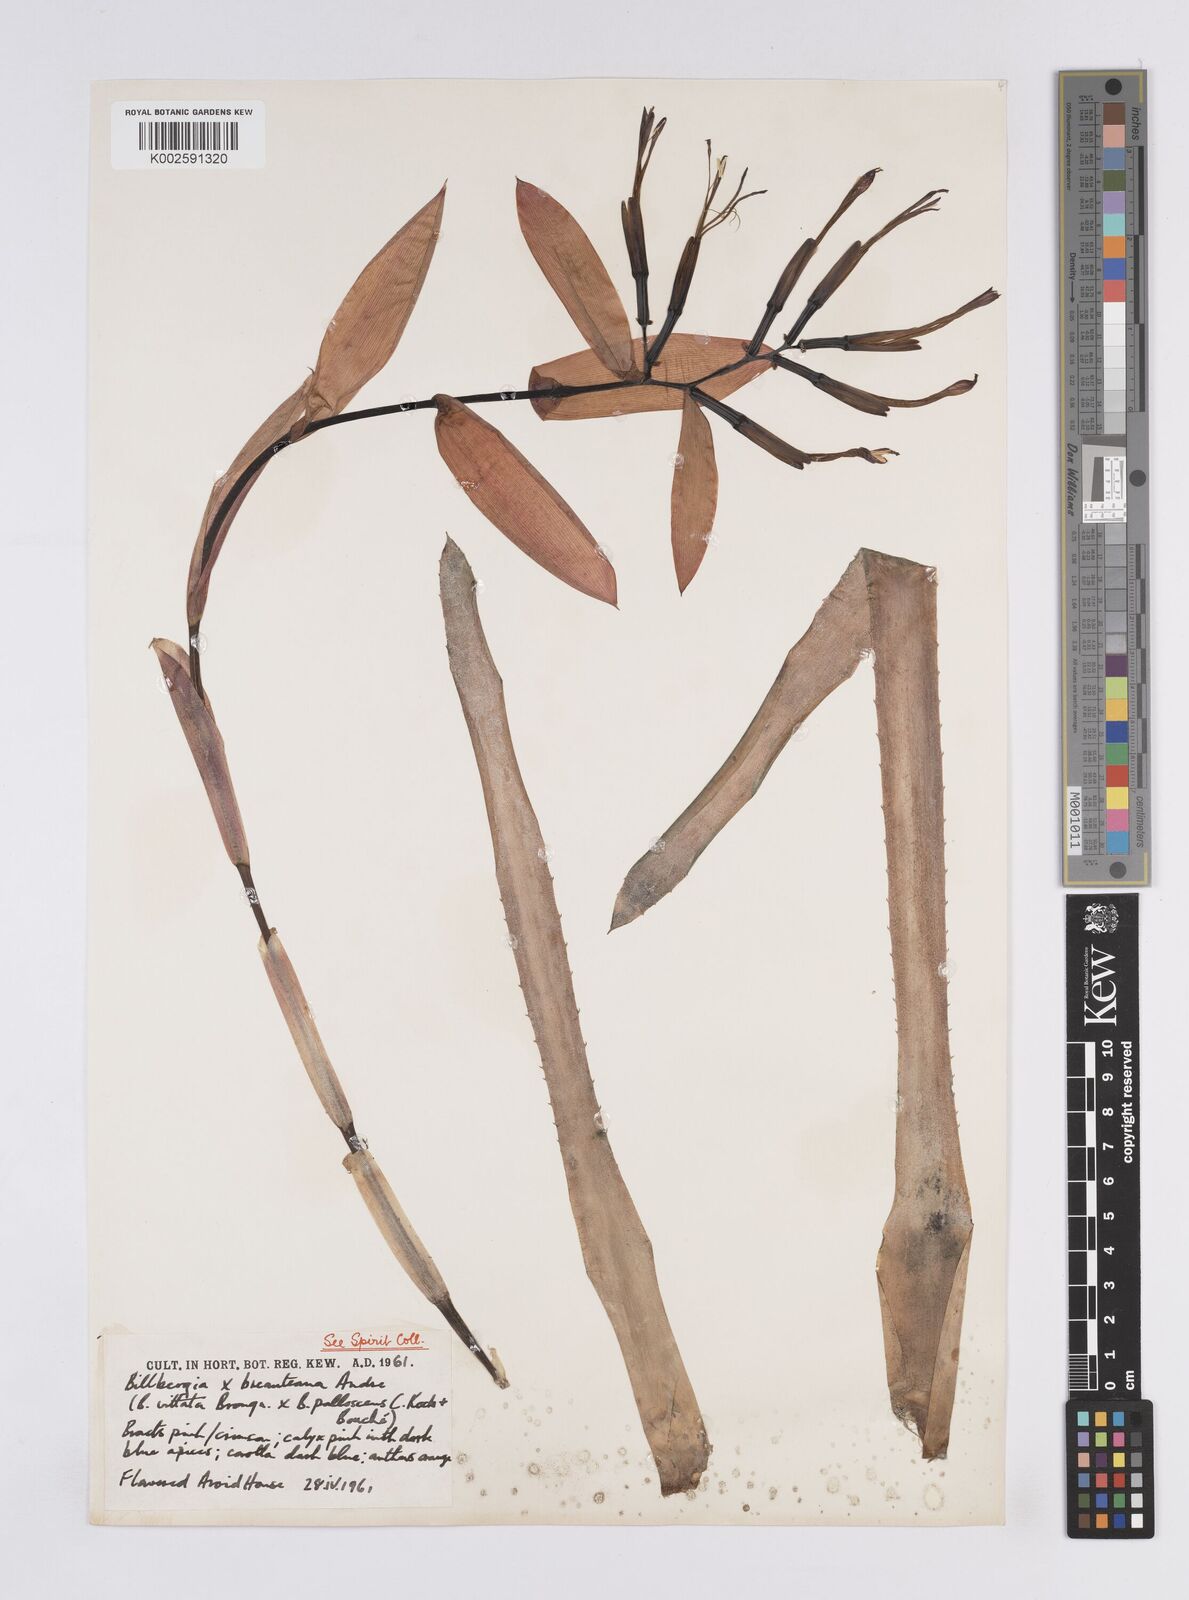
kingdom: Plantae
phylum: Tracheophyta
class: Liliopsida
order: Poales
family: Bromeliaceae
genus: Billbergia
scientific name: Billbergia joliboisii
